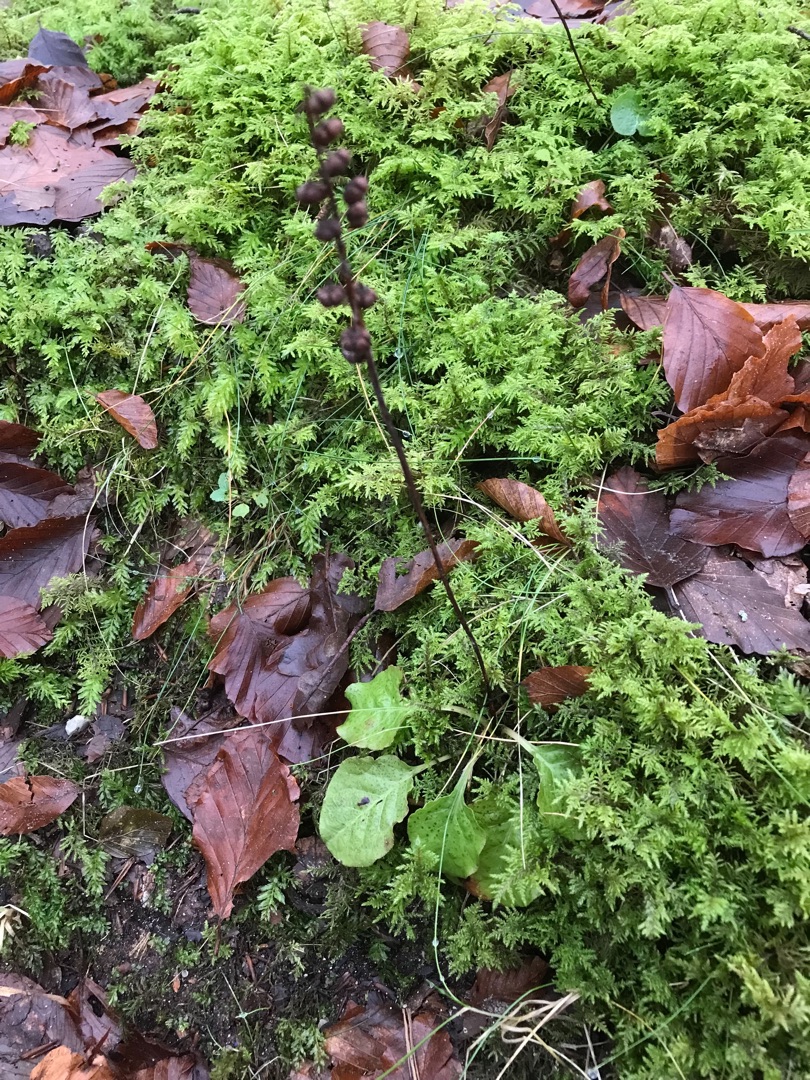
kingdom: Plantae
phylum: Tracheophyta
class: Magnoliopsida
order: Ericales
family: Ericaceae
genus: Pyrola
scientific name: Pyrola minor
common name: Liden vintergrøn
